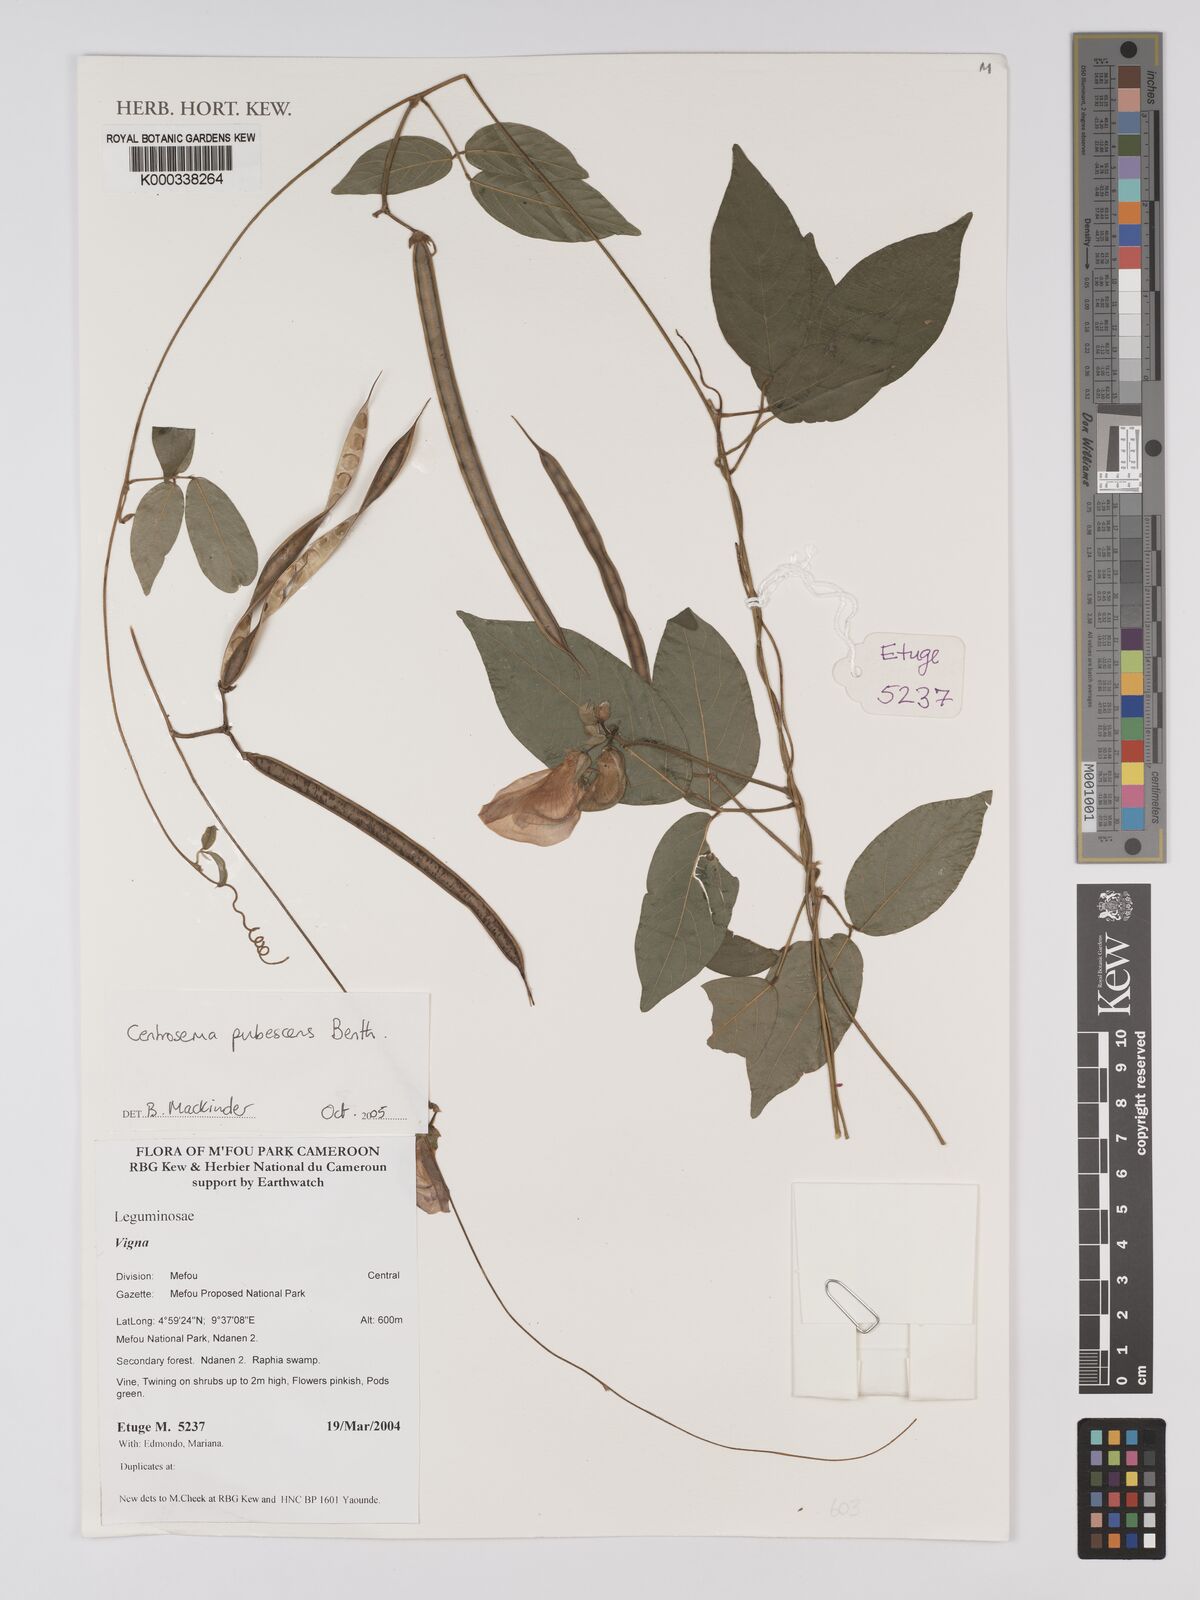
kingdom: Plantae
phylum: Tracheophyta
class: Magnoliopsida
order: Fabales
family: Fabaceae
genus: Centrosema
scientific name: Centrosema pubescens
